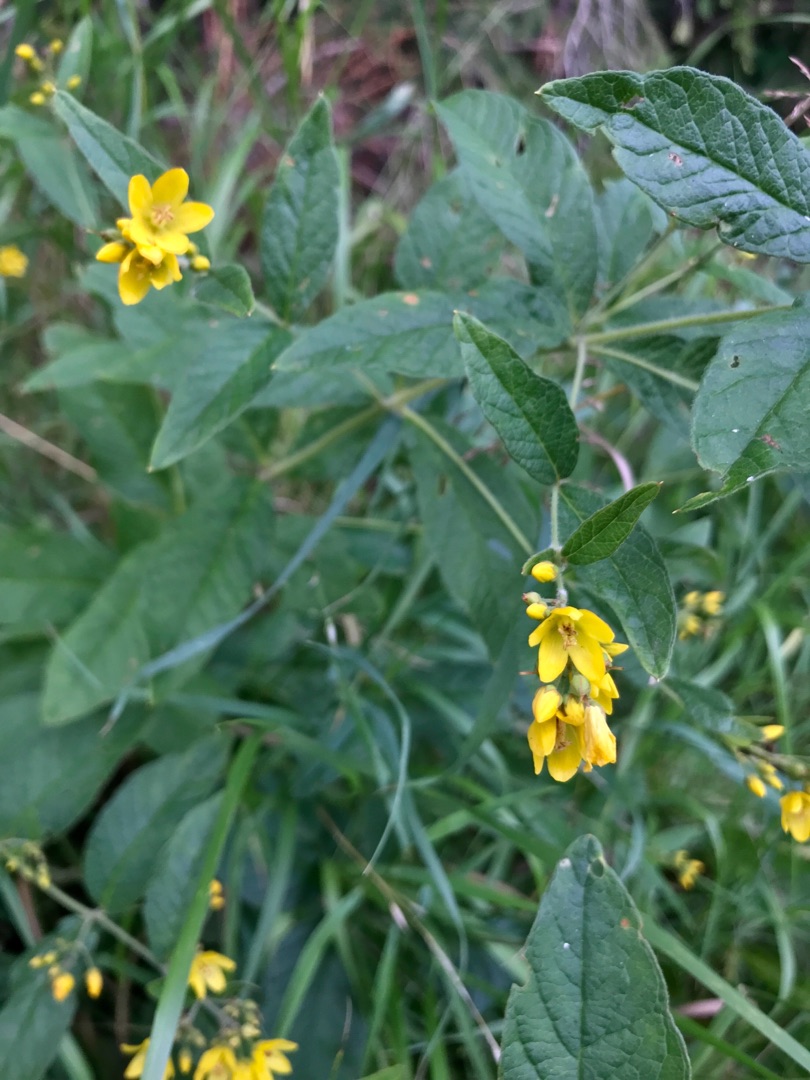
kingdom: Plantae
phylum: Tracheophyta
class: Magnoliopsida
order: Ericales
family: Primulaceae
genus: Lysimachia
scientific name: Lysimachia vulgaris
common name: Almindelig fredløs
